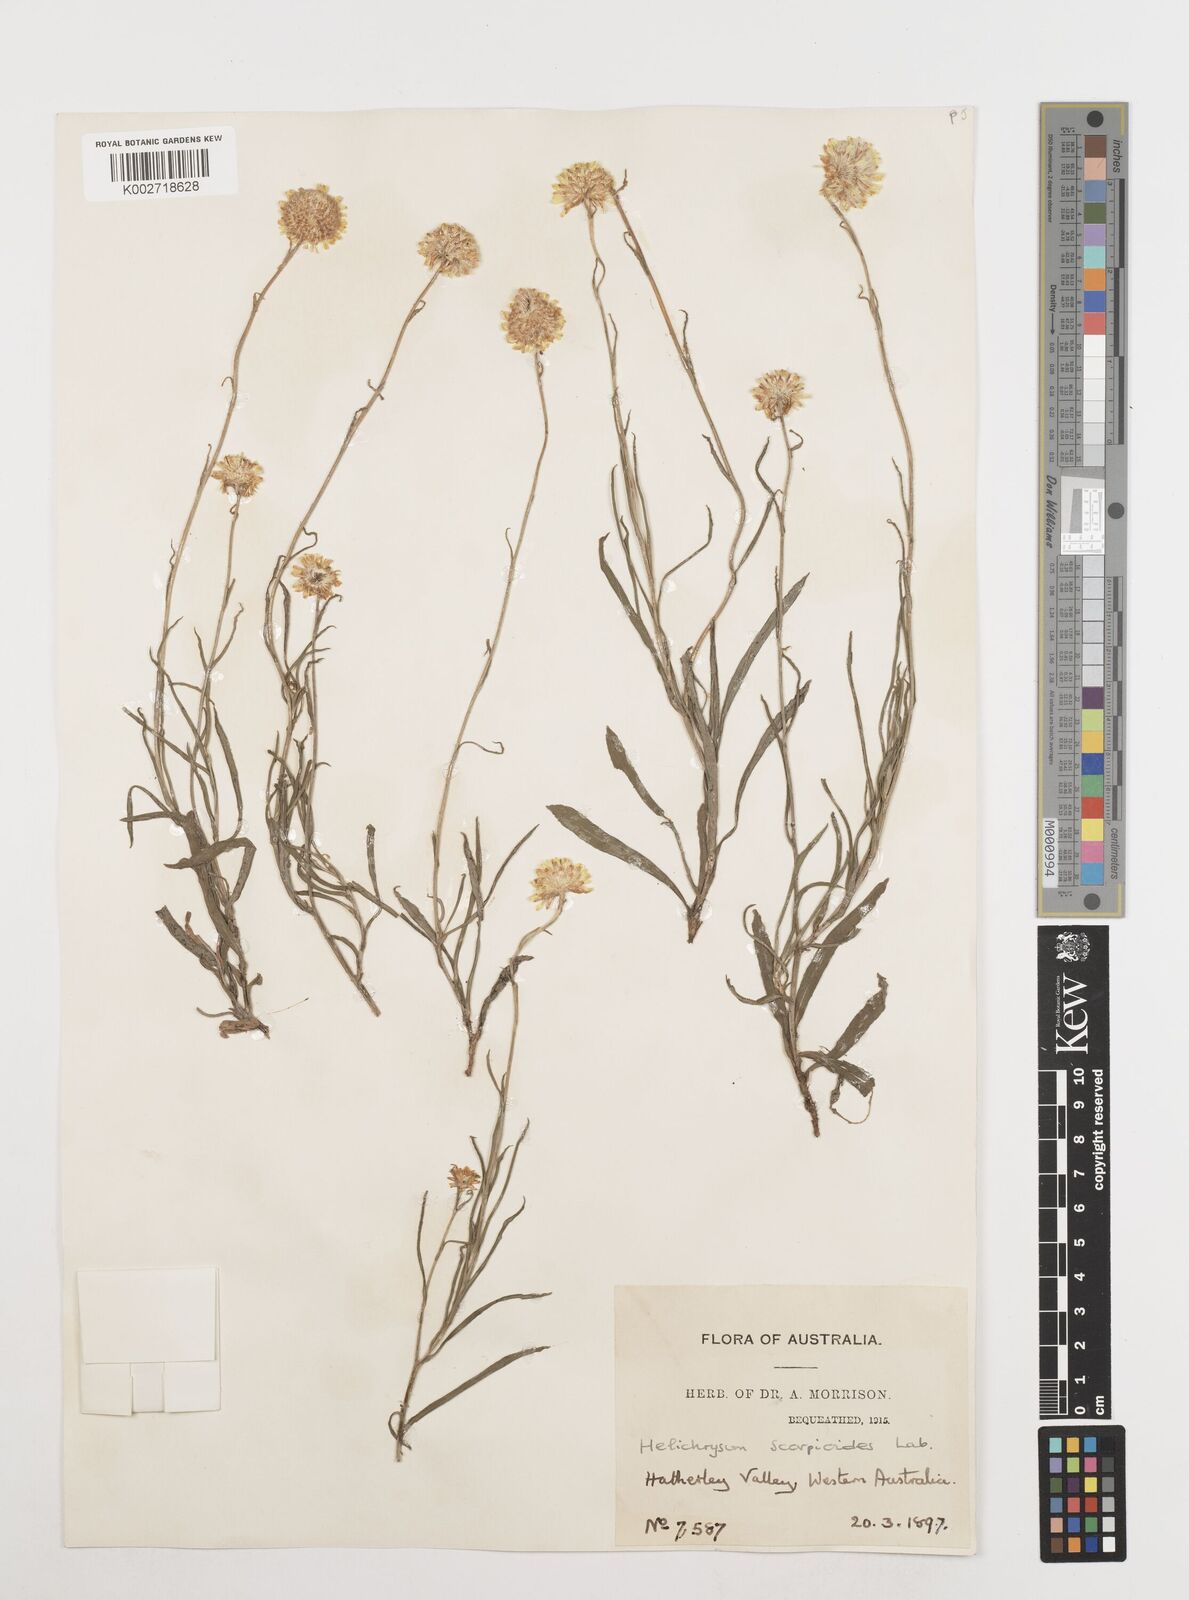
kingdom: Plantae
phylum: Tracheophyta
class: Magnoliopsida
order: Asterales
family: Asteraceae
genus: Coronidium
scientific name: Coronidium scorpioides
